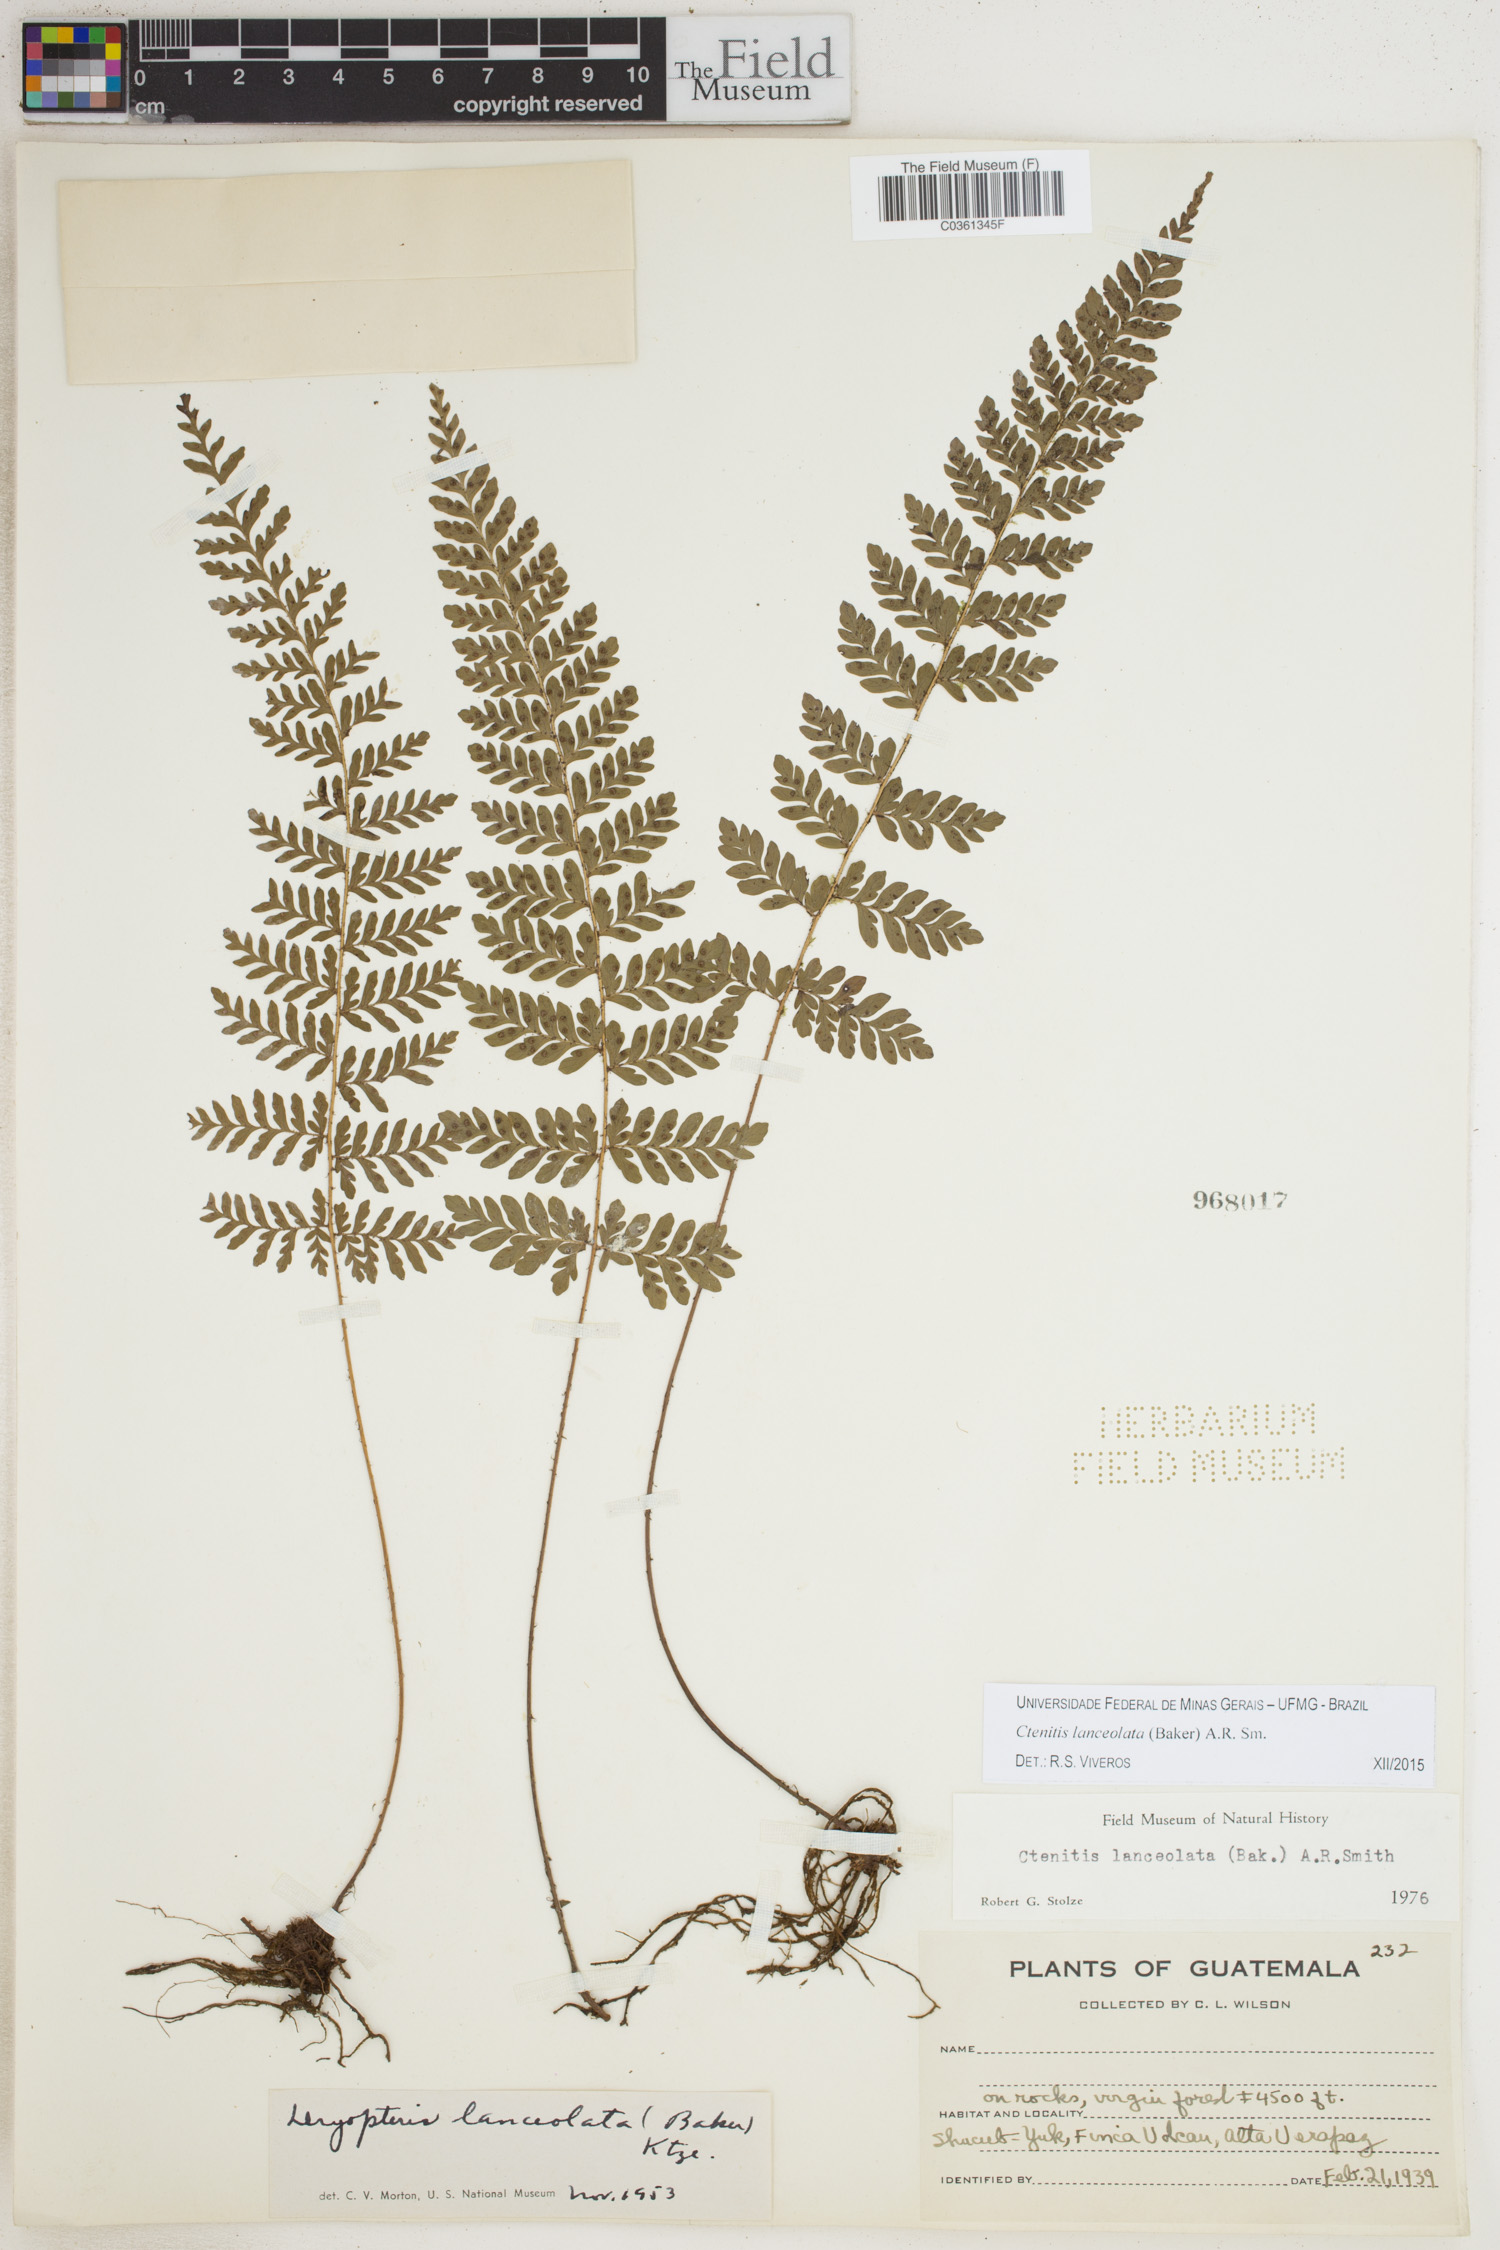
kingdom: Plantae
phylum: Tracheophyta
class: Polypodiopsida
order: Polypodiales
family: Dryopteridaceae
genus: Ctenitis
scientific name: Ctenitis grisebachii
